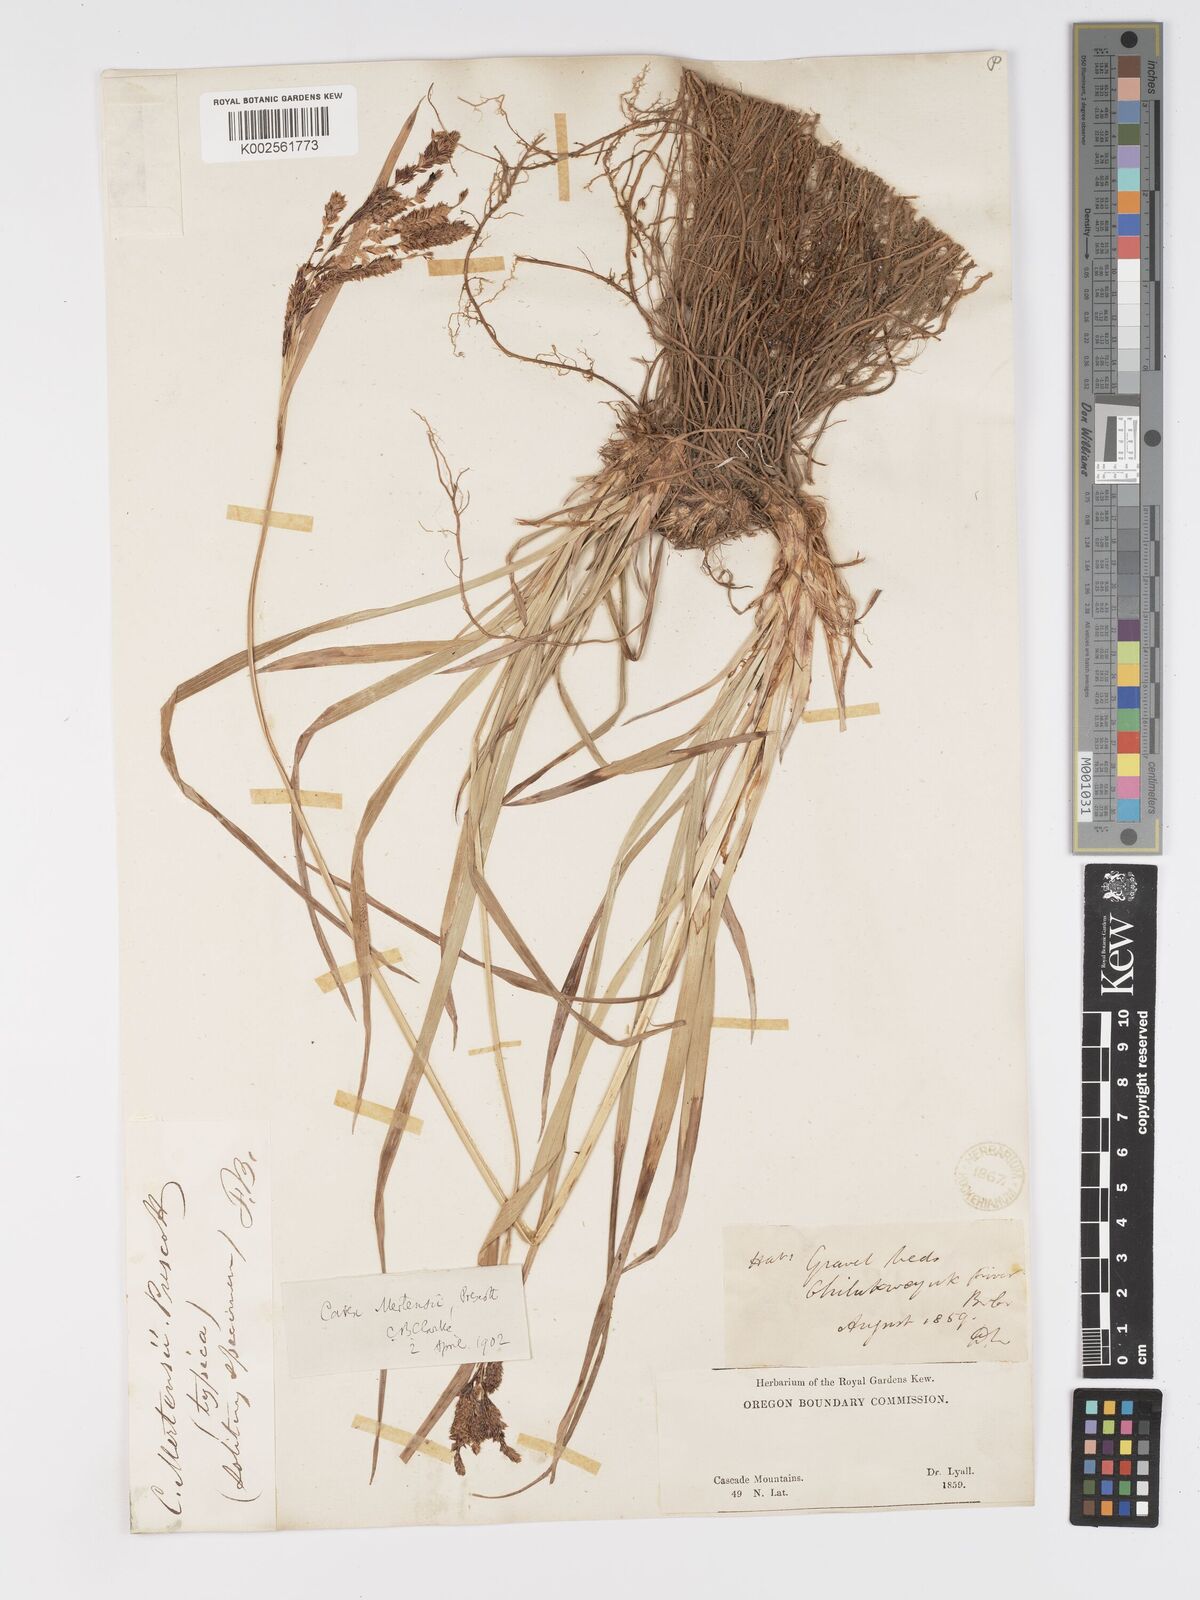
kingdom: Plantae
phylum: Tracheophyta
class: Liliopsida
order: Poales
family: Cyperaceae
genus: Carex
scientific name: Carex mertensii
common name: Mertens' sedge
